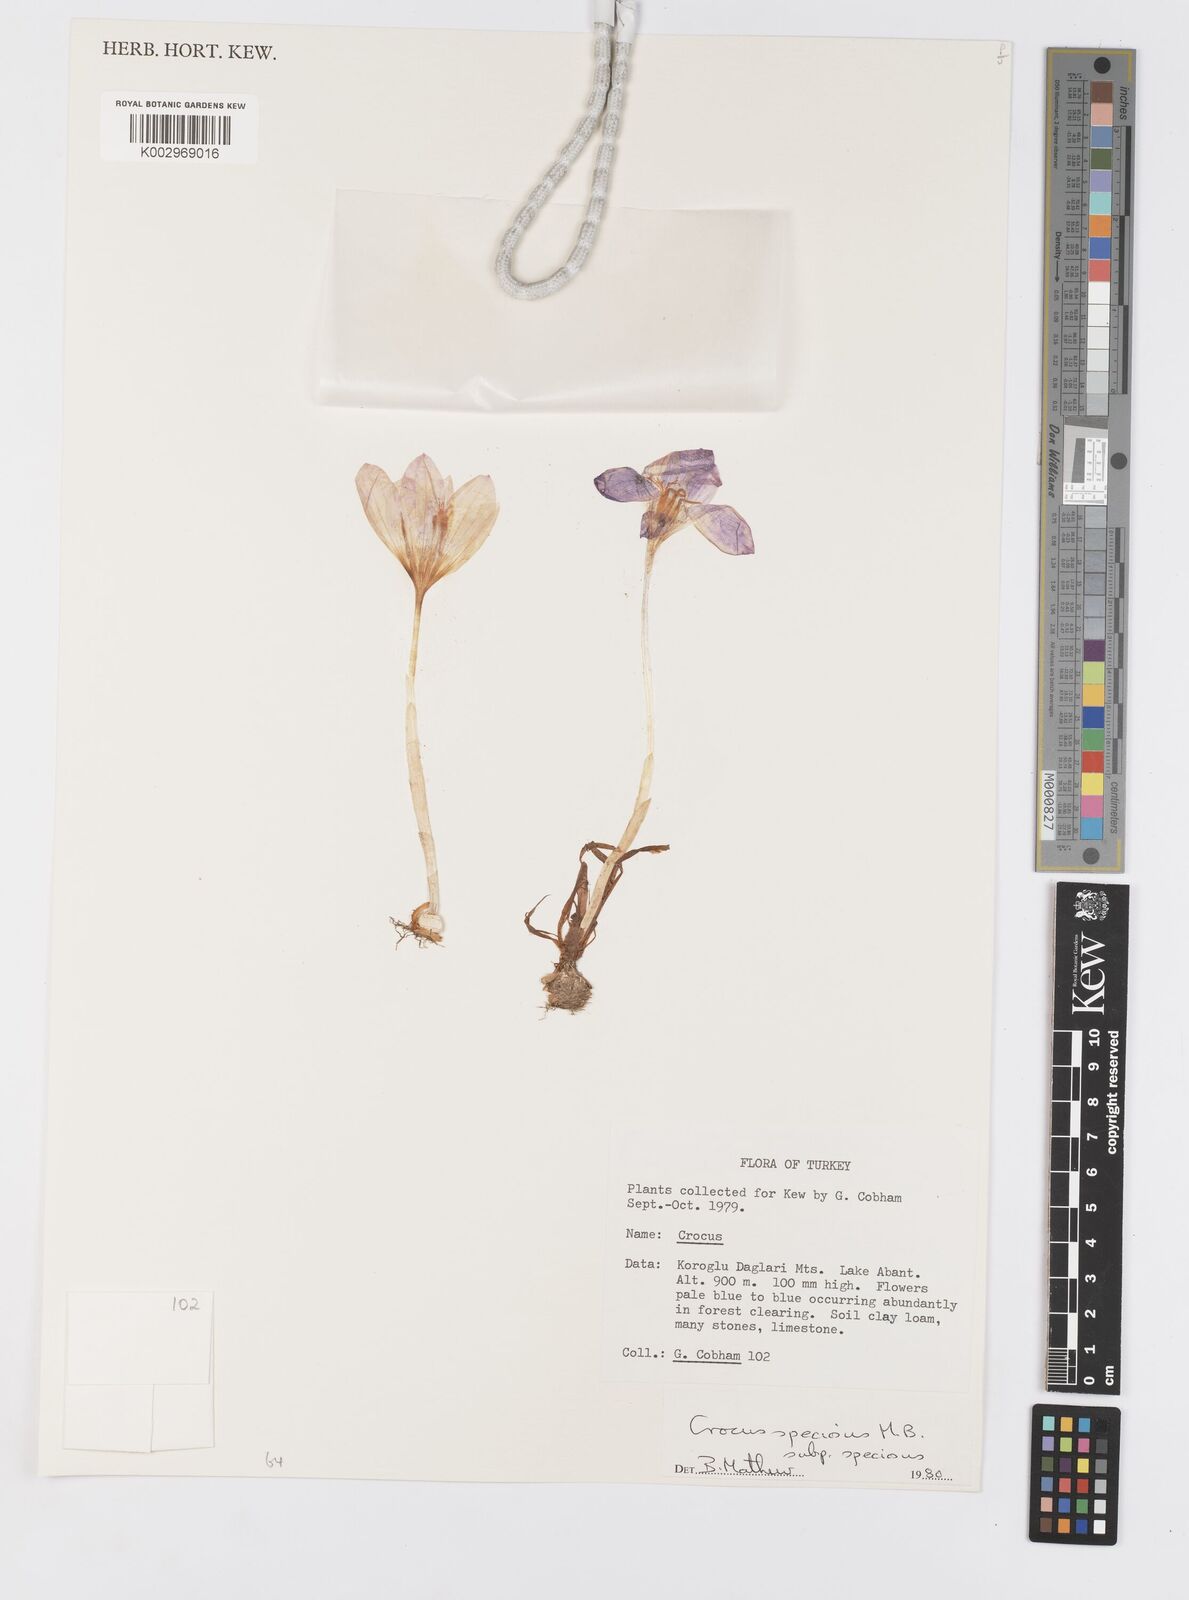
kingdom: Plantae
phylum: Tracheophyta
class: Liliopsida
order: Asparagales
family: Iridaceae
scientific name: Iridaceae
